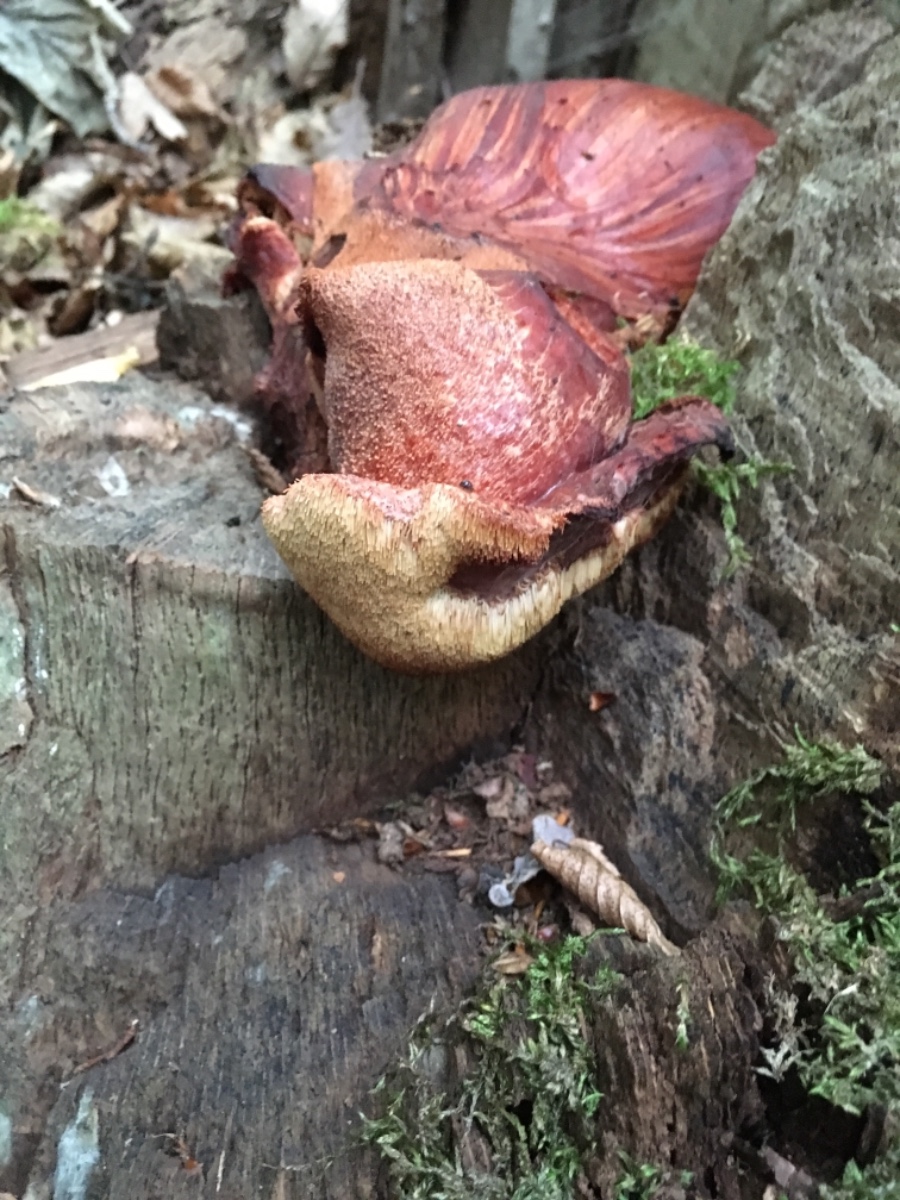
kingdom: Fungi
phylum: Basidiomycota
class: Agaricomycetes
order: Agaricales
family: Fistulinaceae
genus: Fistulina
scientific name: Fistulina hepatica
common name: oksetunge
